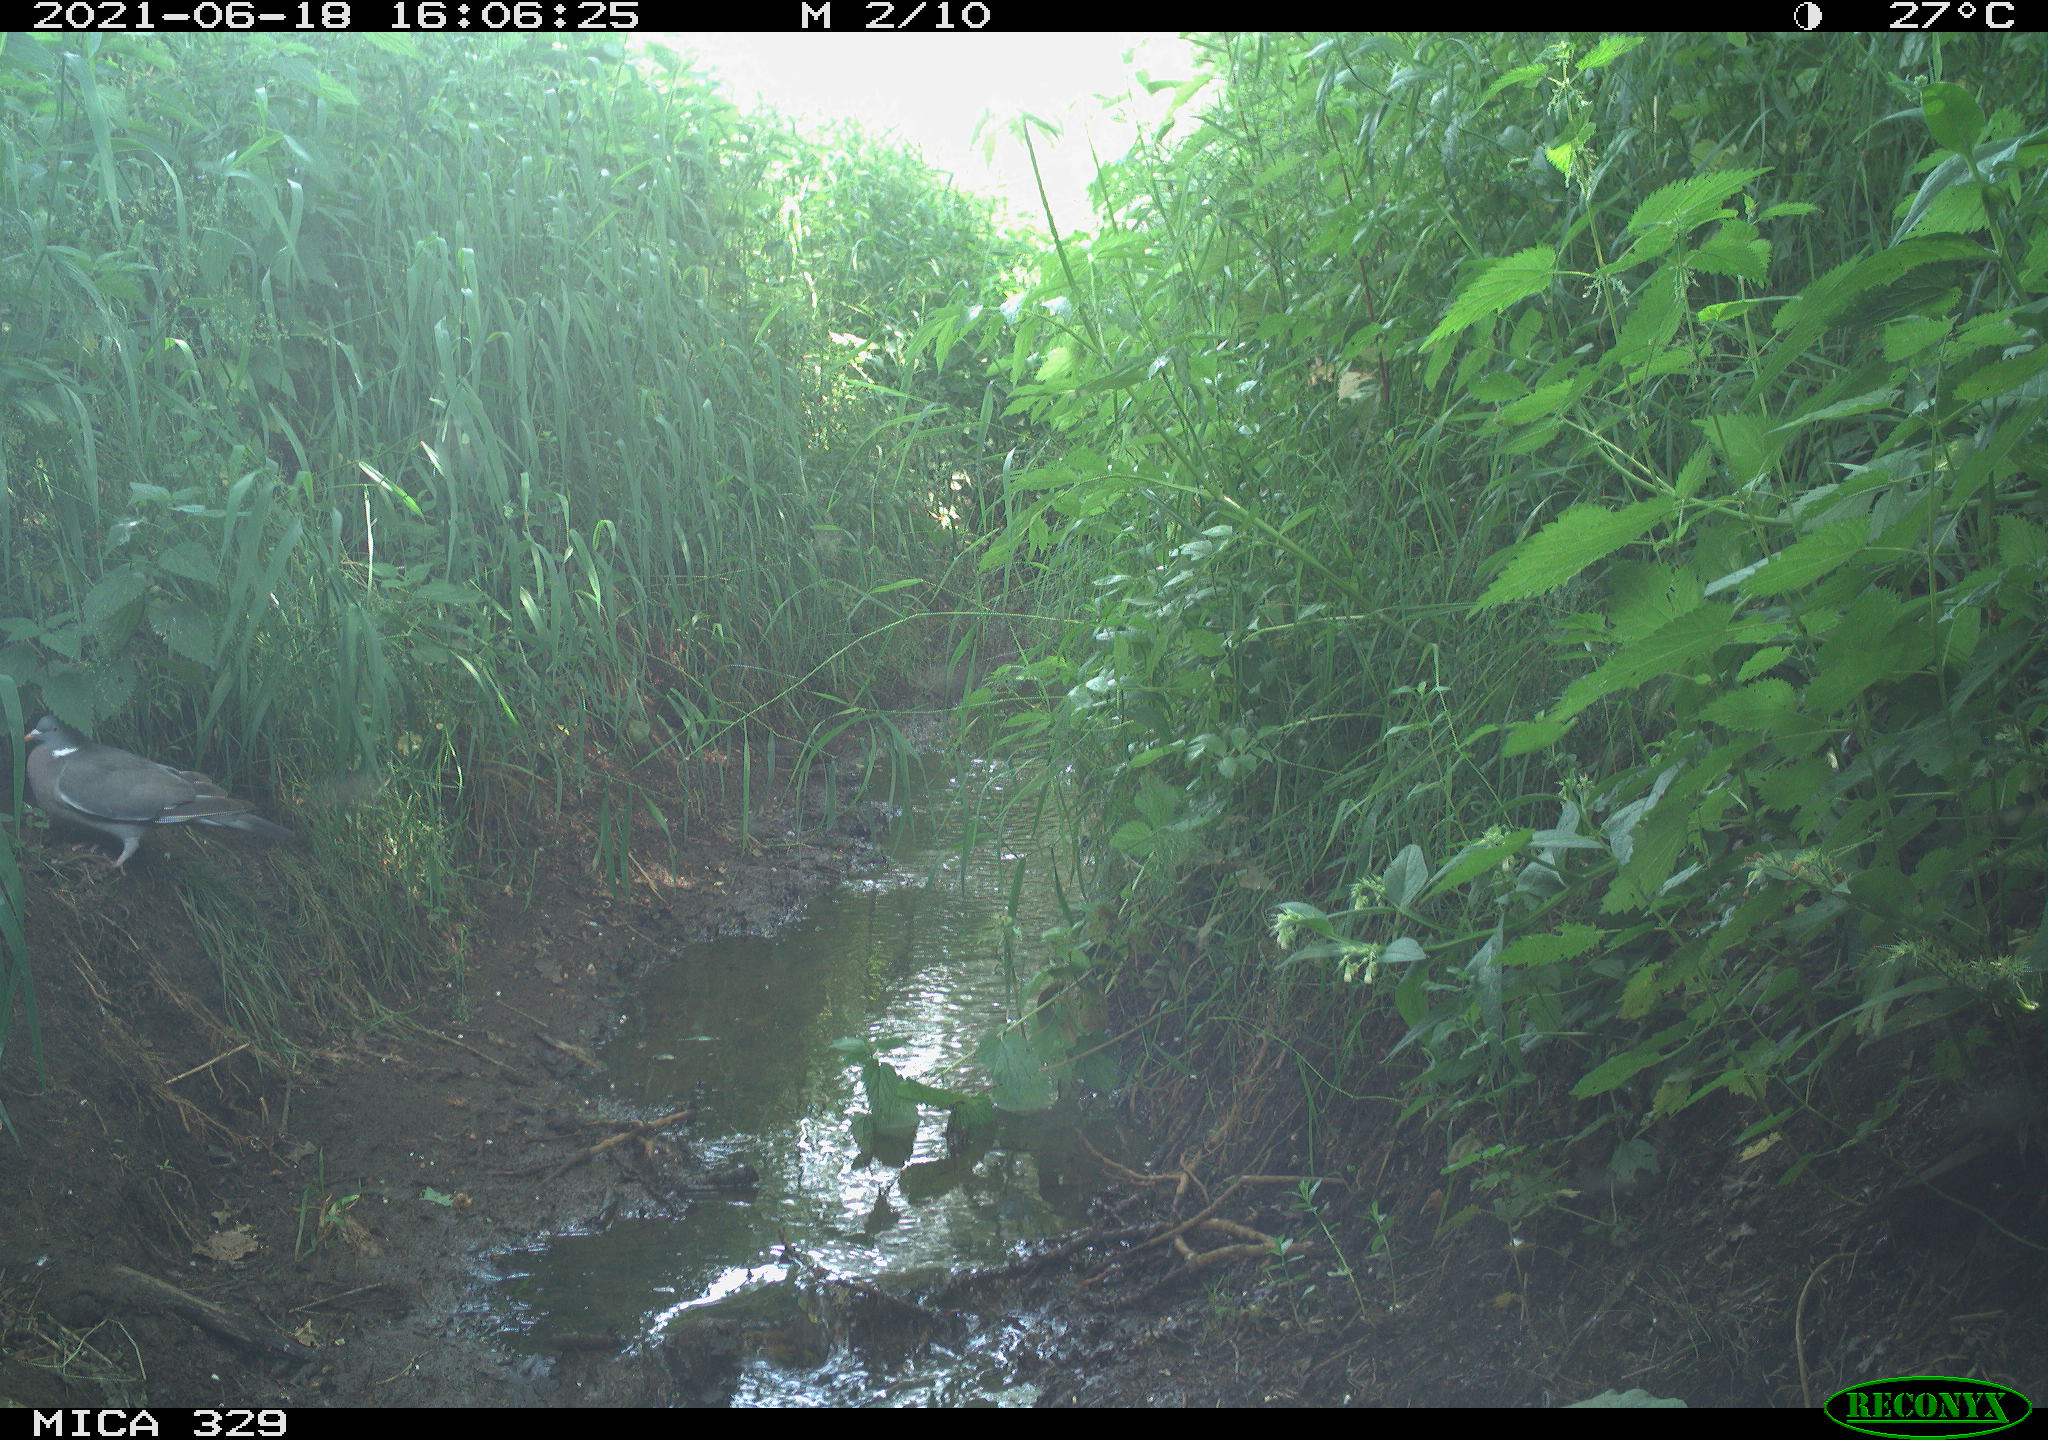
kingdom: Animalia
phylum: Chordata
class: Aves
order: Columbiformes
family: Columbidae
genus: Columba
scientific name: Columba palumbus
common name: Common wood pigeon
